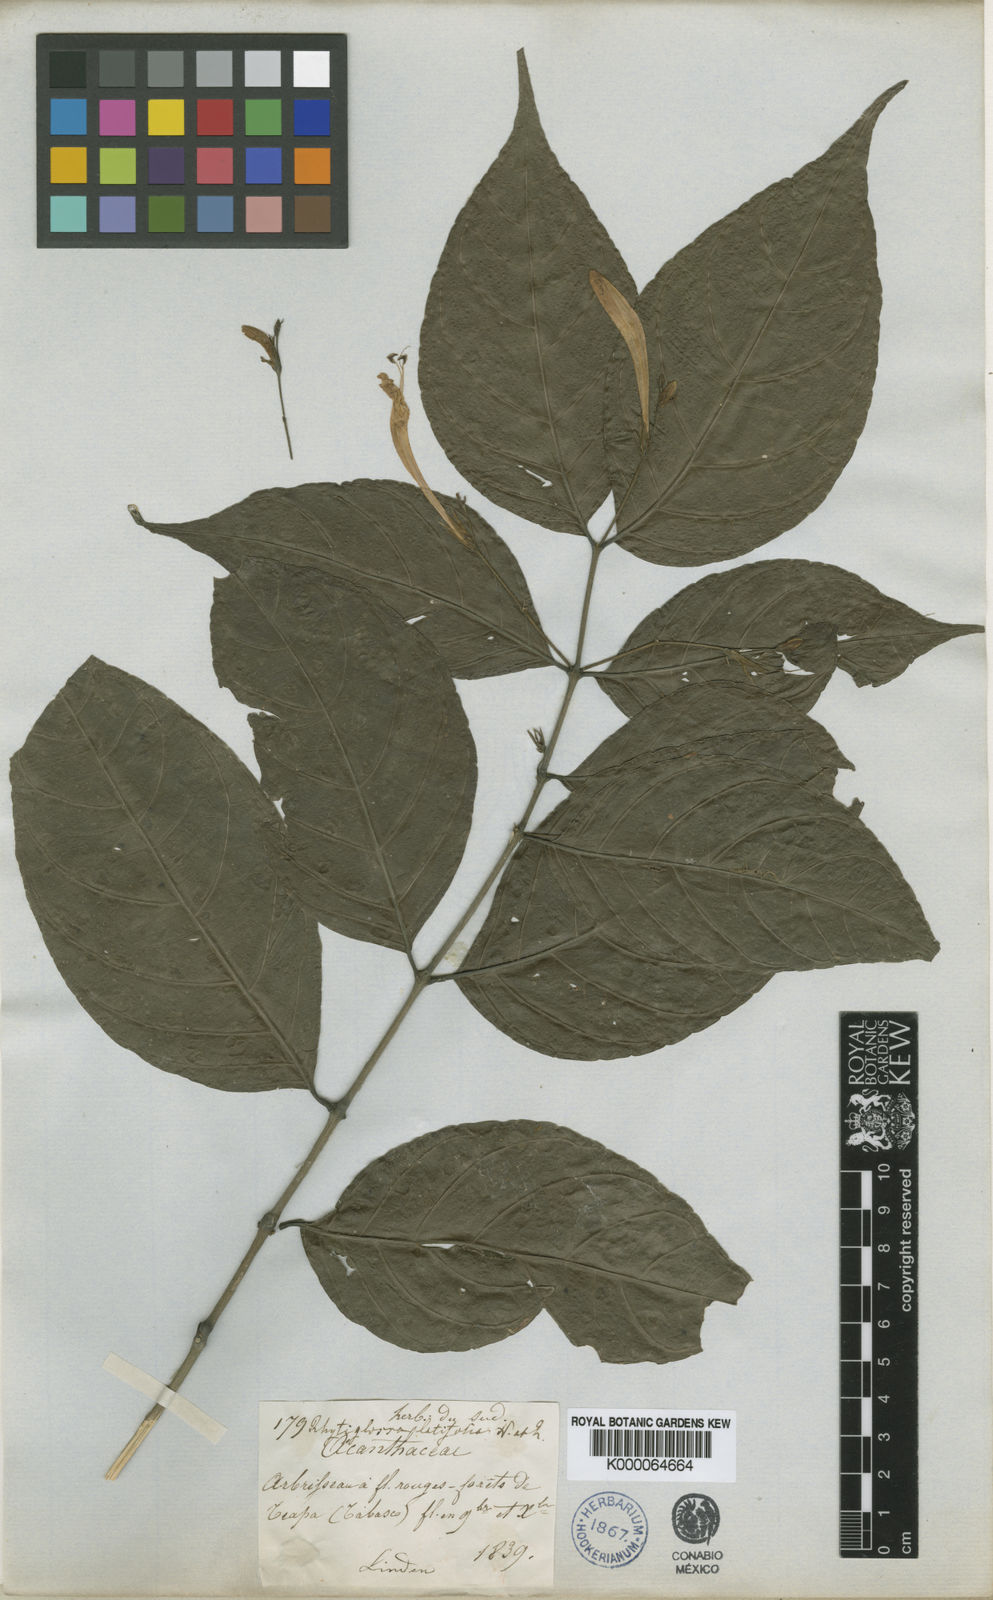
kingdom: Plantae
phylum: Tracheophyta
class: Magnoliopsida
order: Lamiales
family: Acanthaceae
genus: Justicia
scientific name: Justicia
